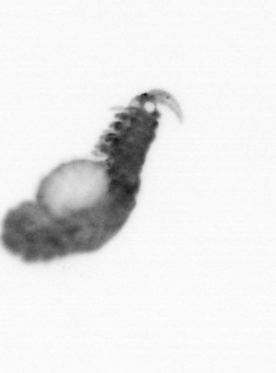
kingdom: Animalia
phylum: Annelida
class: Polychaeta
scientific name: Polychaeta
